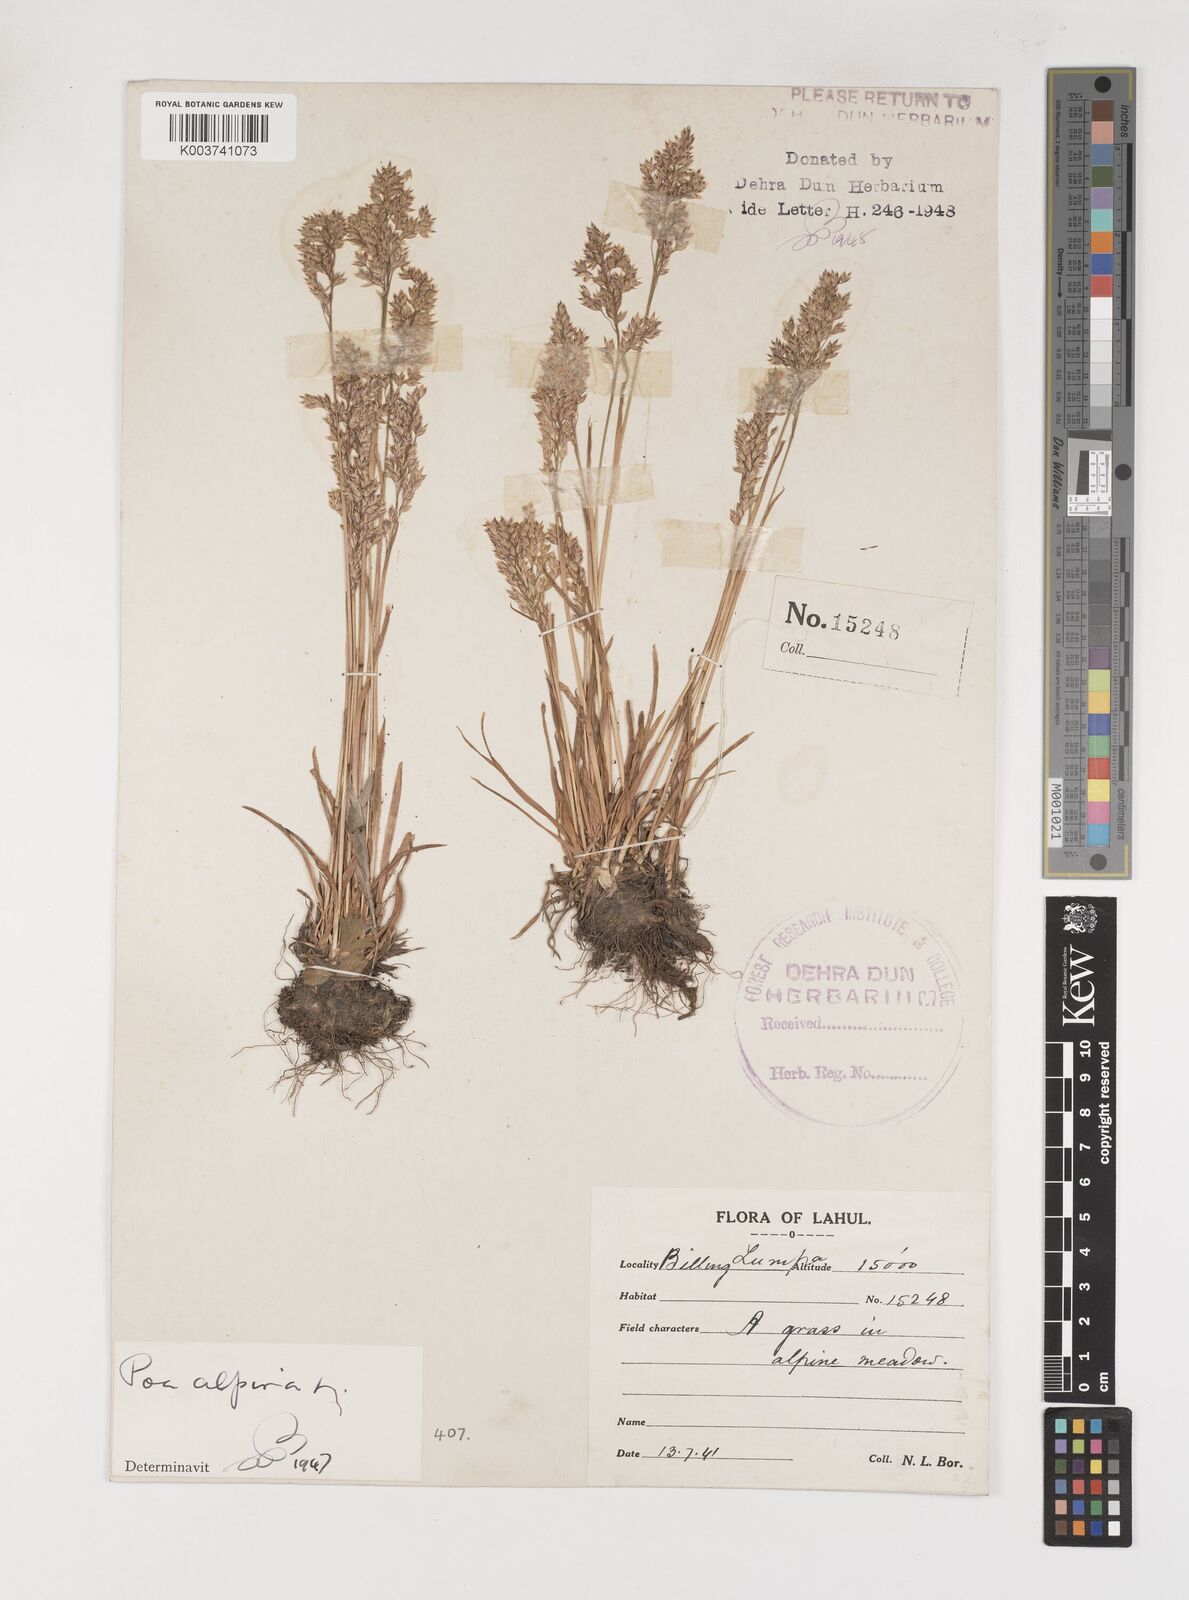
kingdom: Plantae
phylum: Tracheophyta
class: Liliopsida
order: Poales
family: Poaceae
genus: Poa
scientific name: Poa alpina
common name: Alpine bluegrass
